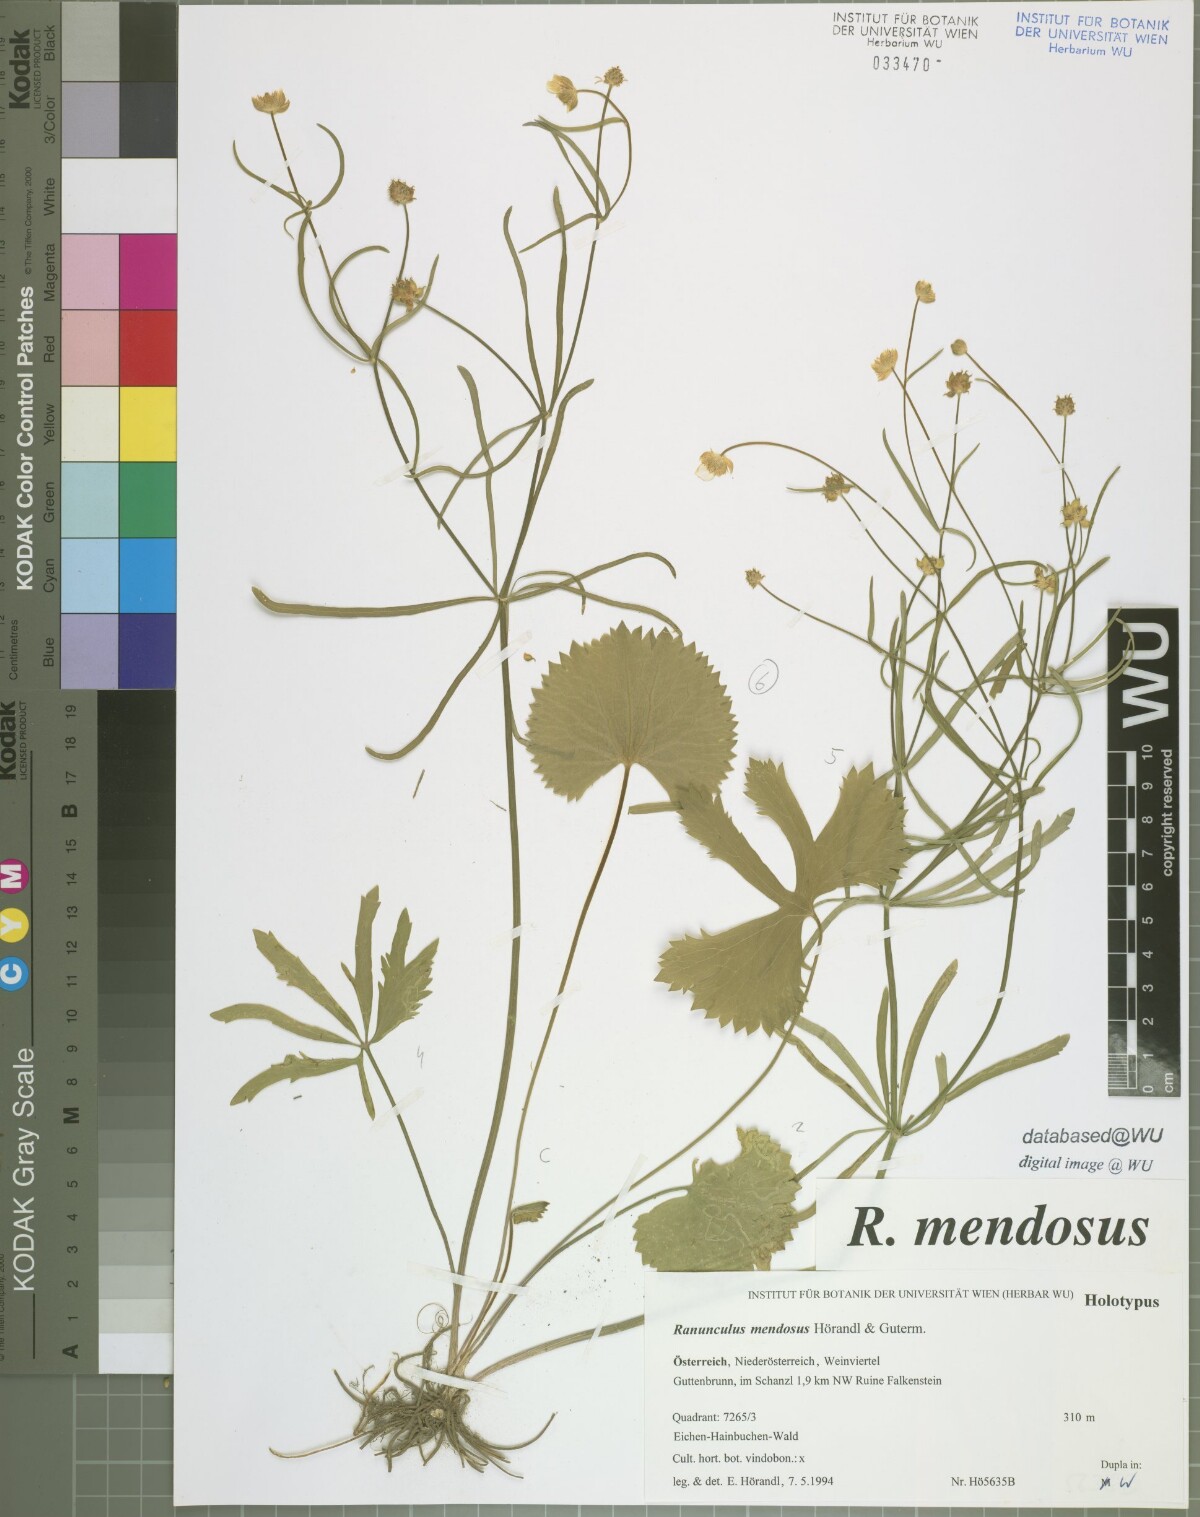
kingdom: Plantae
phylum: Tracheophyta
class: Magnoliopsida
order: Ranunculales
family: Ranunculaceae
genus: Ranunculus
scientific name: Ranunculus mendosus
